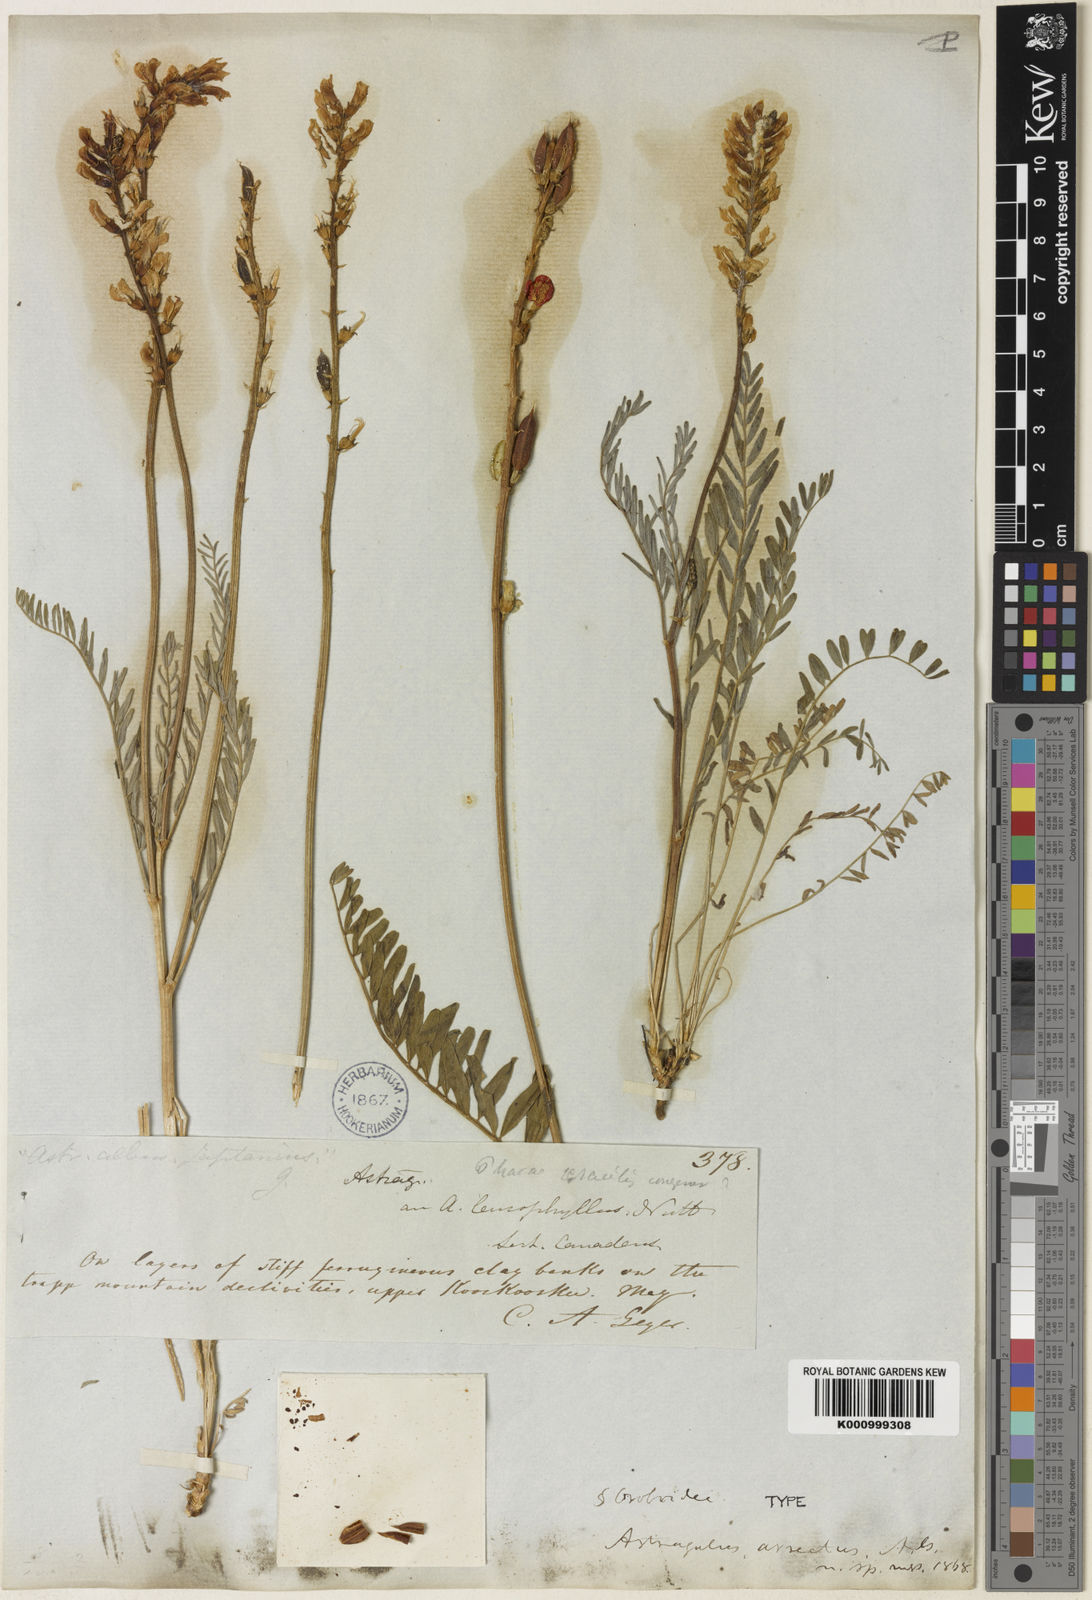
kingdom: Plantae
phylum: Tracheophyta
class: Magnoliopsida
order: Fabales
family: Fabaceae
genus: Astragalus
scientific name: Astragalus arrectus
